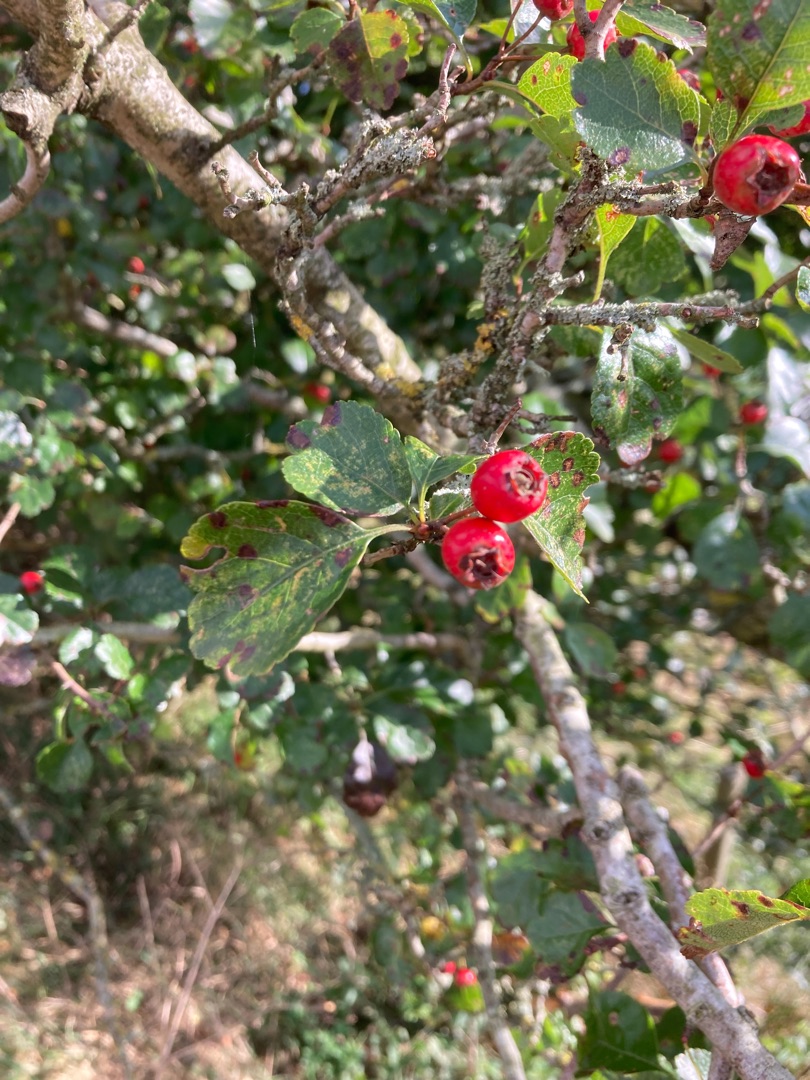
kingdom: Plantae
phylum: Tracheophyta
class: Magnoliopsida
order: Rosales
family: Rosaceae
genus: Crataegus
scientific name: Crataegus laevigata
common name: Almindelig hvidtjørn
